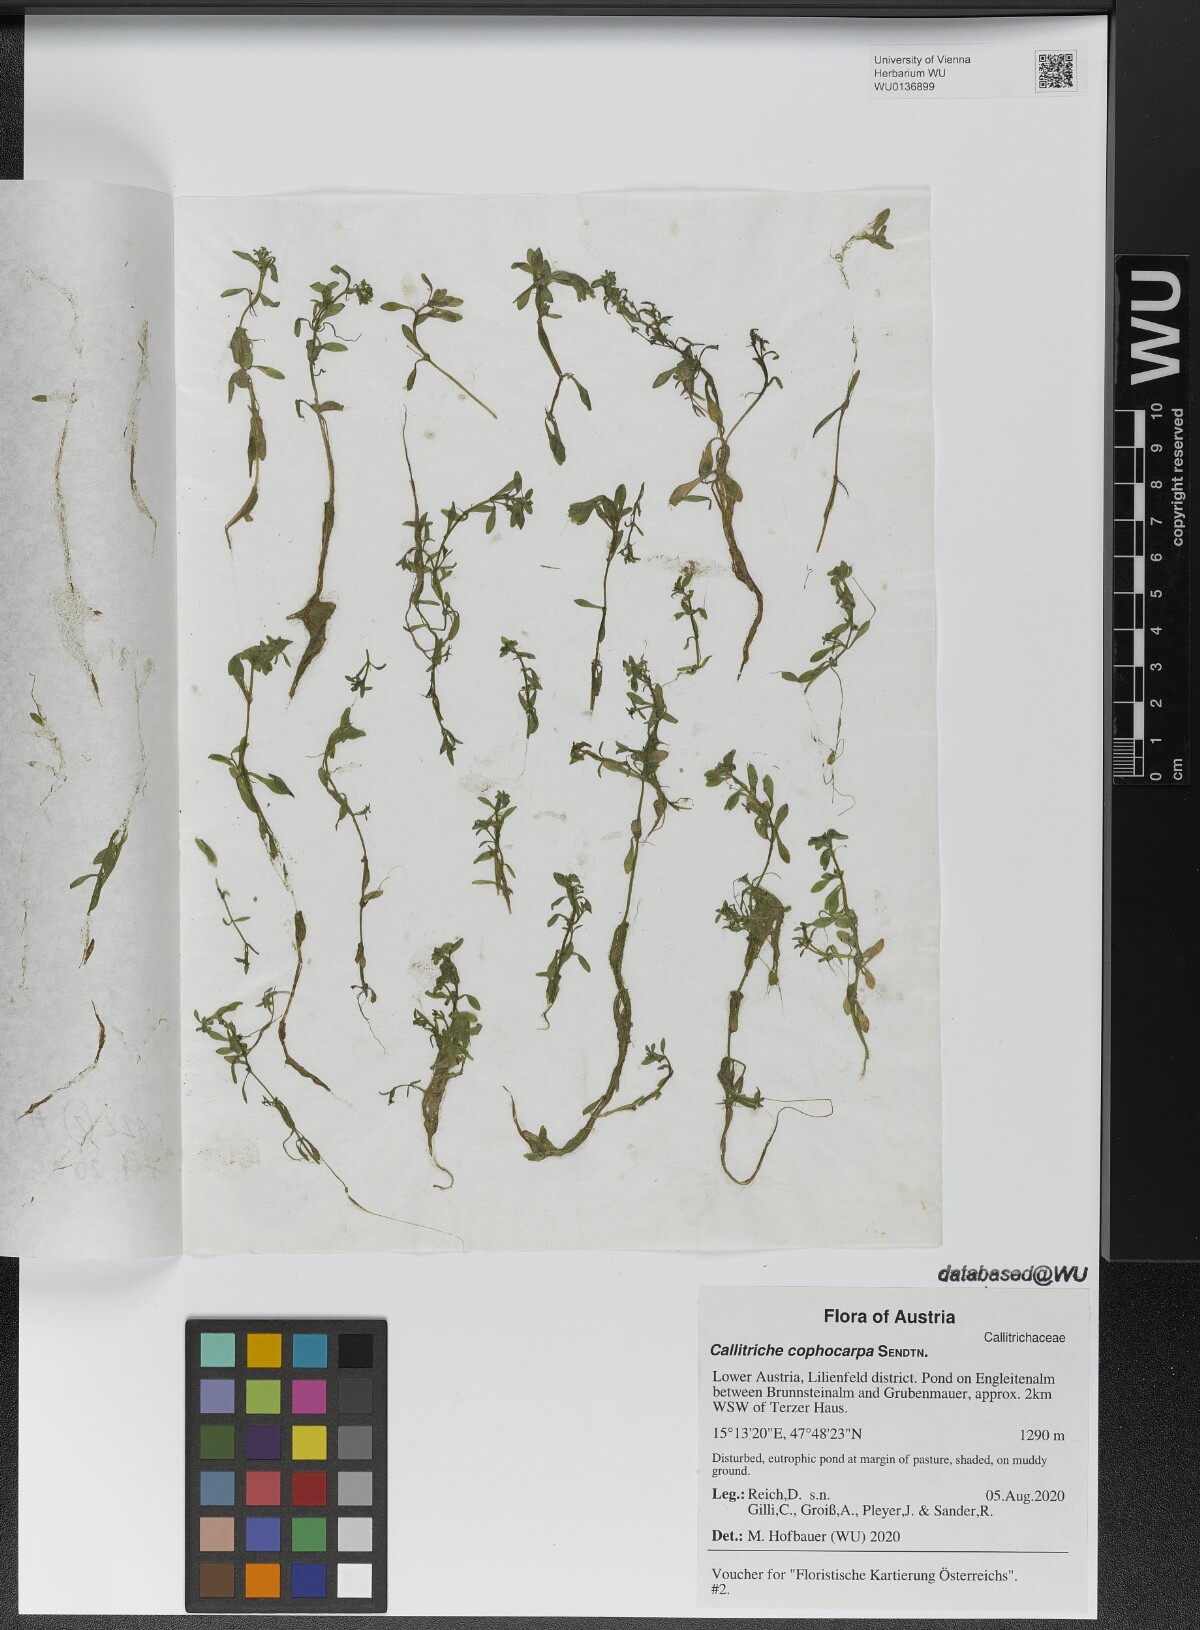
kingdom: Plantae
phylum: Tracheophyta
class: Magnoliopsida
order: Lamiales
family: Plantaginaceae
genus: Callitriche
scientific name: Callitriche cophocarpa
